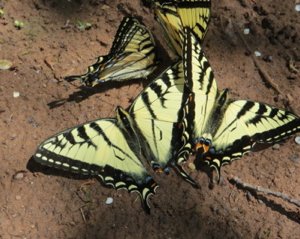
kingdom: Animalia
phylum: Arthropoda
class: Insecta
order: Lepidoptera
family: Papilionidae
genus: Pterourus
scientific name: Pterourus canadensis
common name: Canadian Tiger Swallowtail
